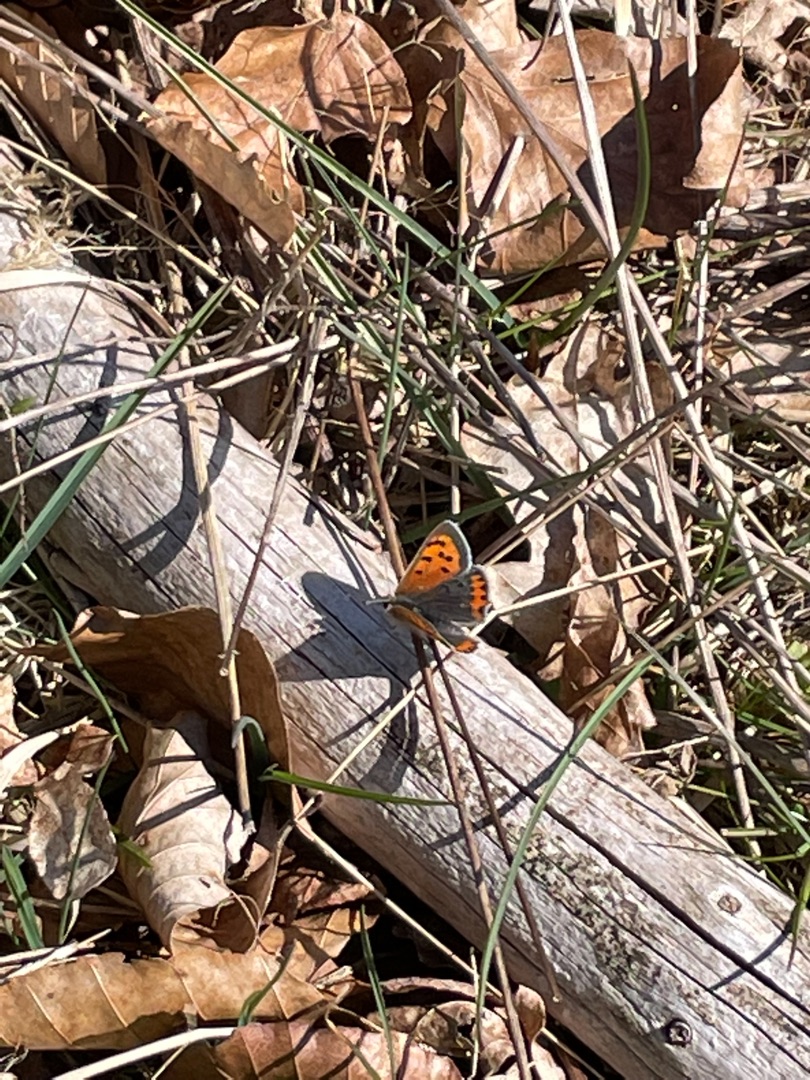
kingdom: Animalia
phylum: Arthropoda
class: Insecta
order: Lepidoptera
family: Lycaenidae
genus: Lycaena
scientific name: Lycaena phlaeas
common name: Lille ildfugl
